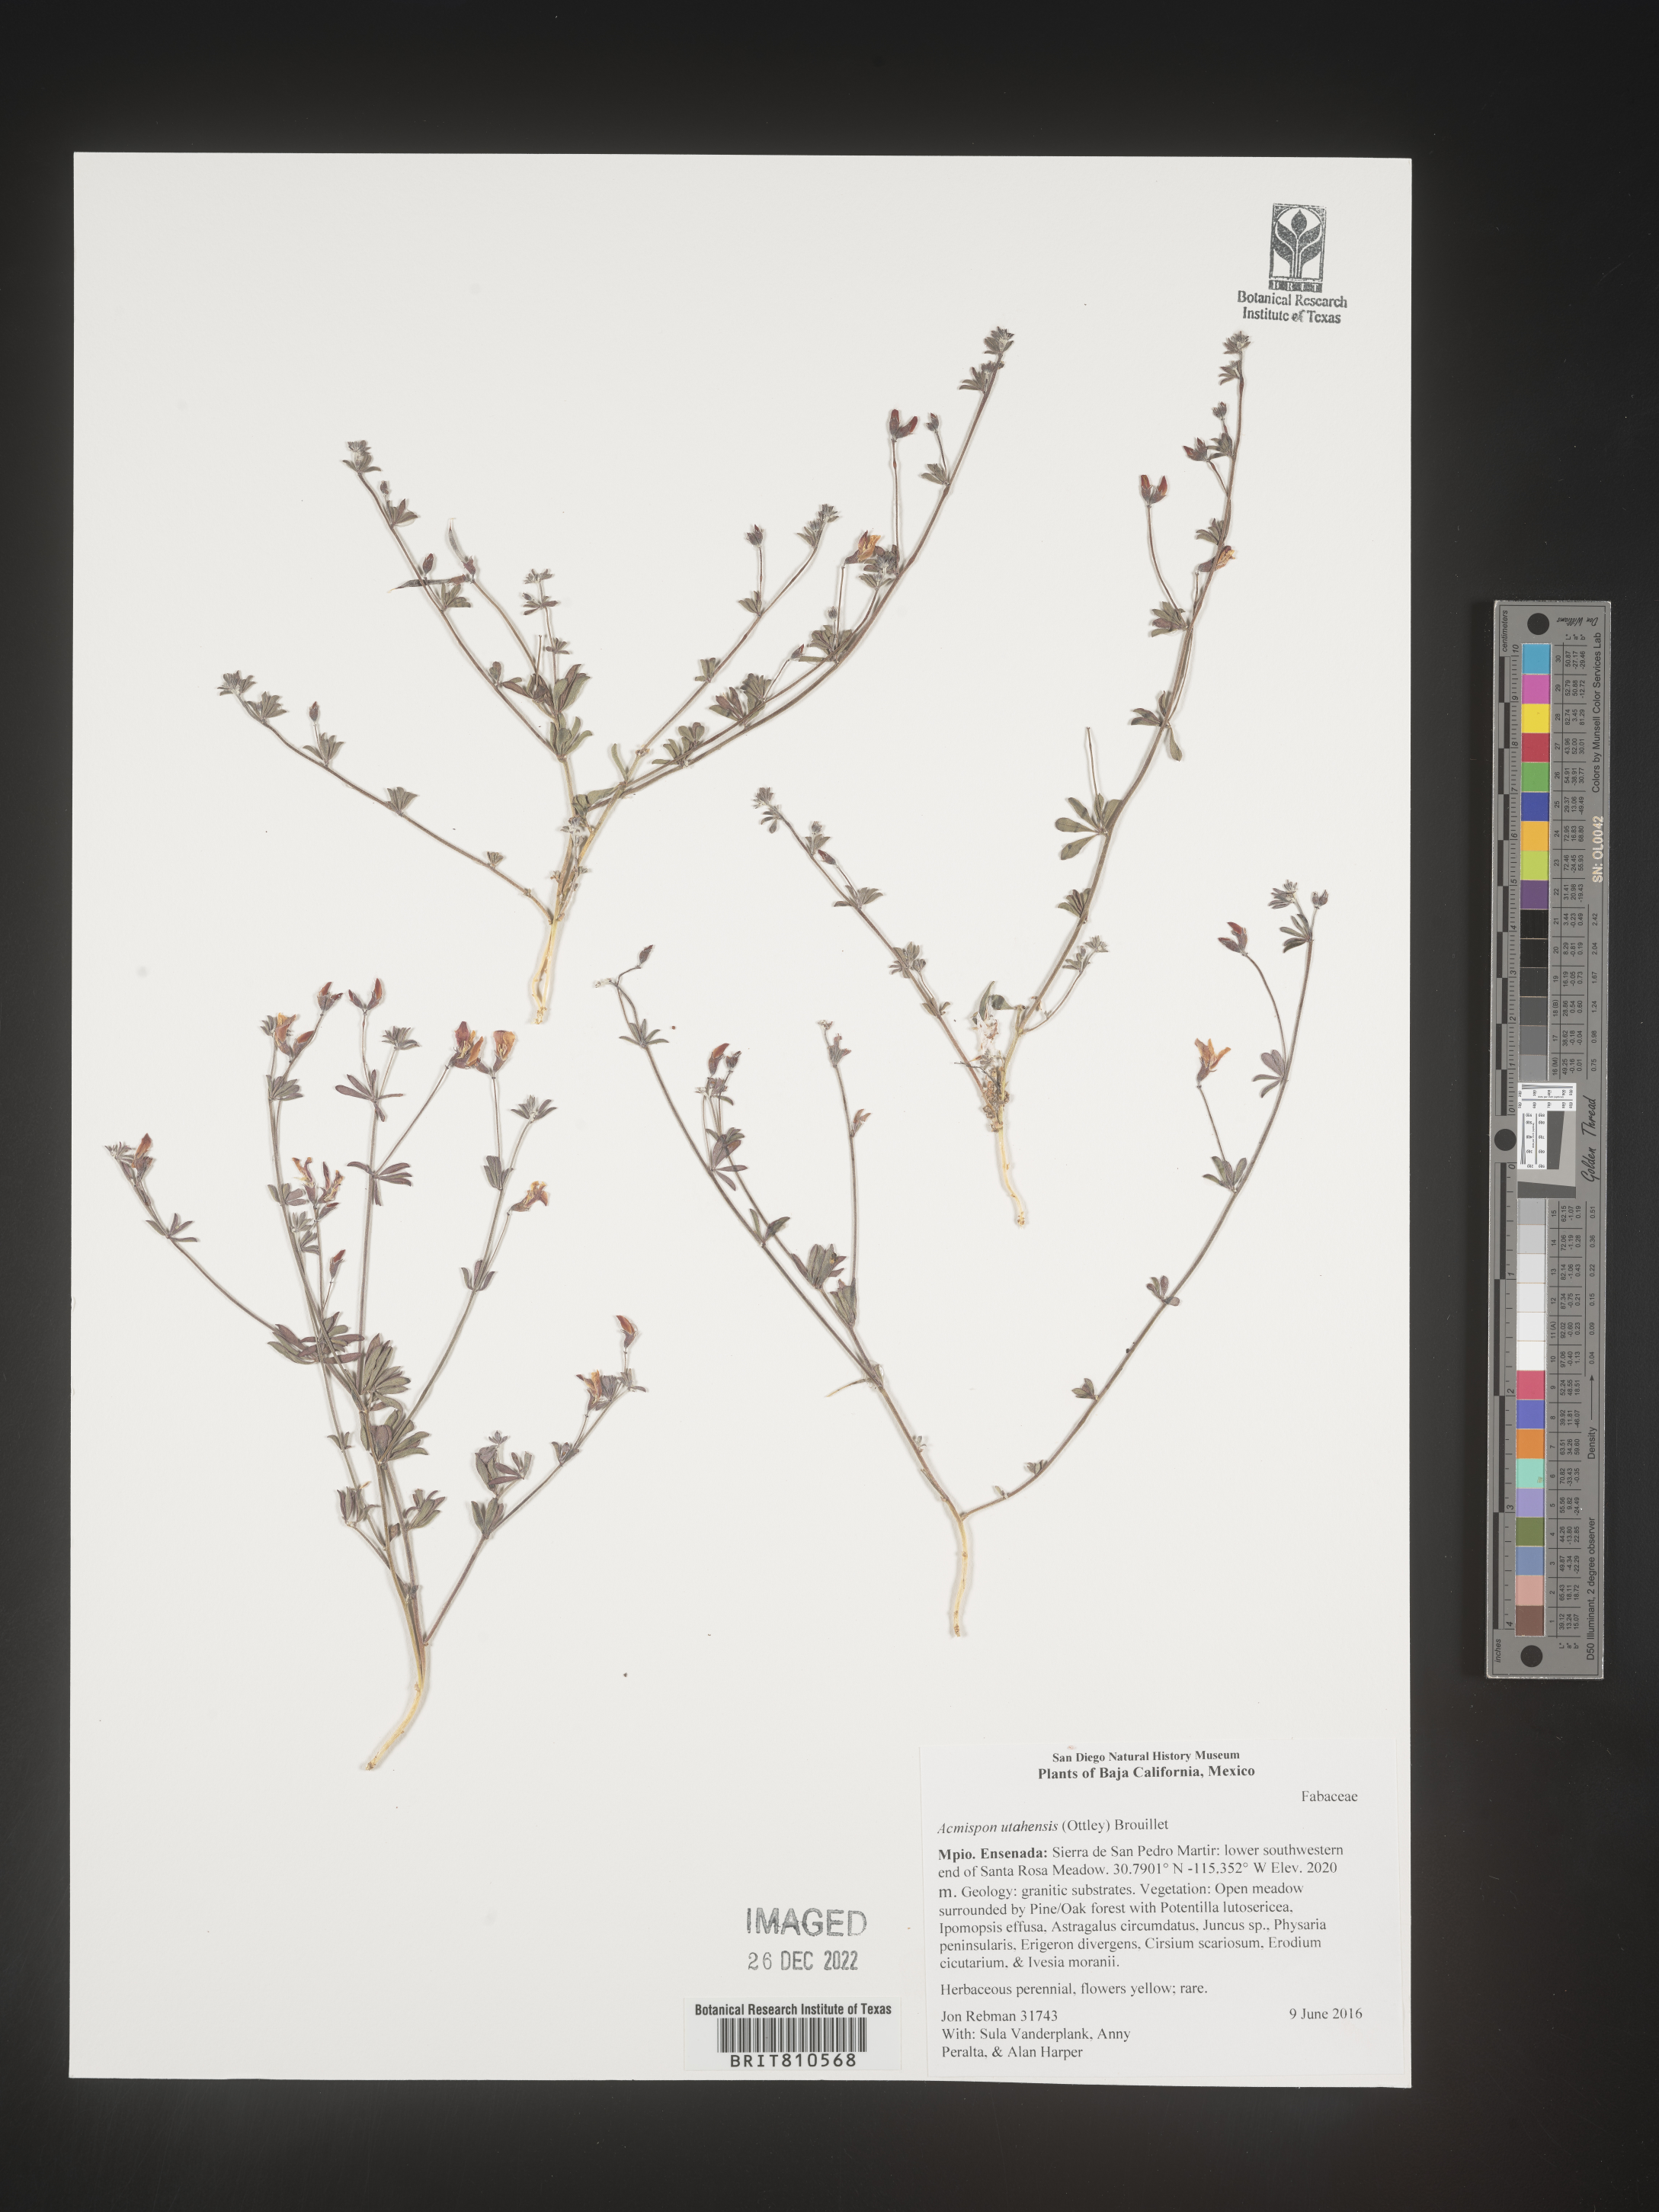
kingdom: Plantae
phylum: Tracheophyta
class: Magnoliopsida
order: Fabales
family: Fabaceae
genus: Acmispon
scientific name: Acmispon
